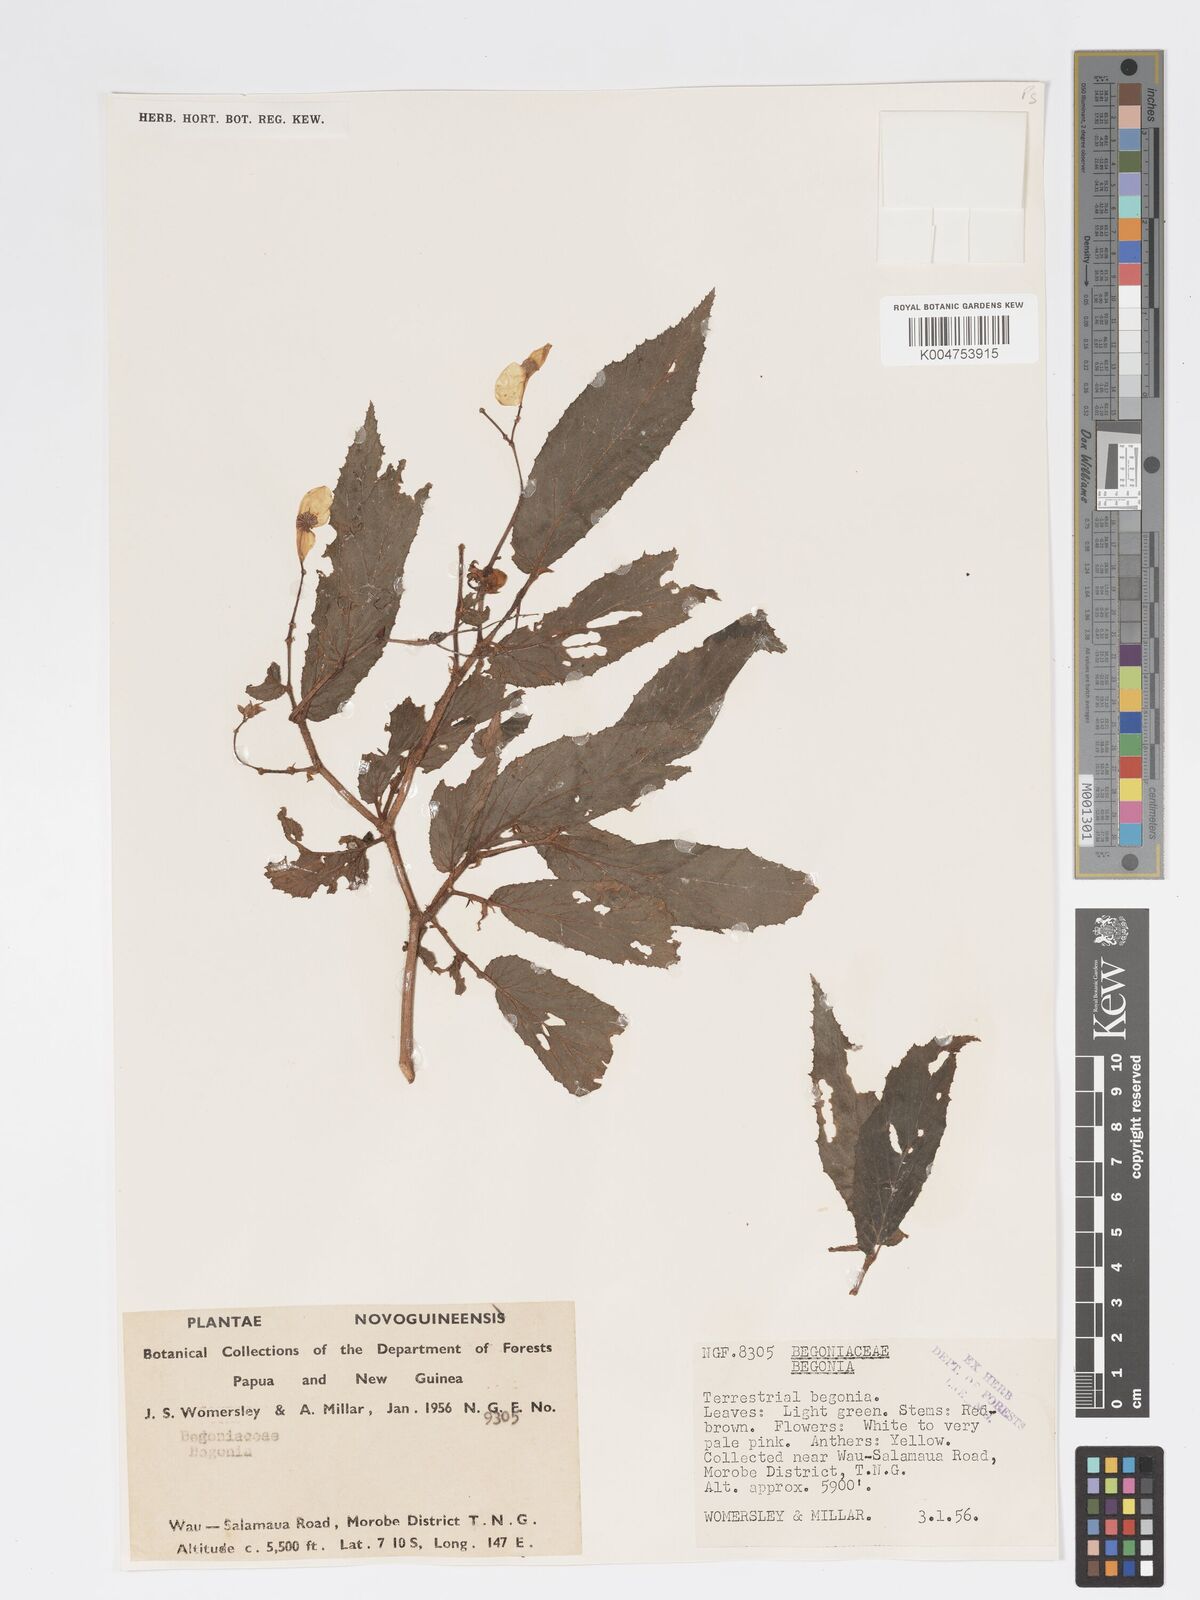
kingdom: Plantae
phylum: Tracheophyta
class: Magnoliopsida
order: Cucurbitales
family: Begoniaceae
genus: Begonia
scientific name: Begonia fruticella
